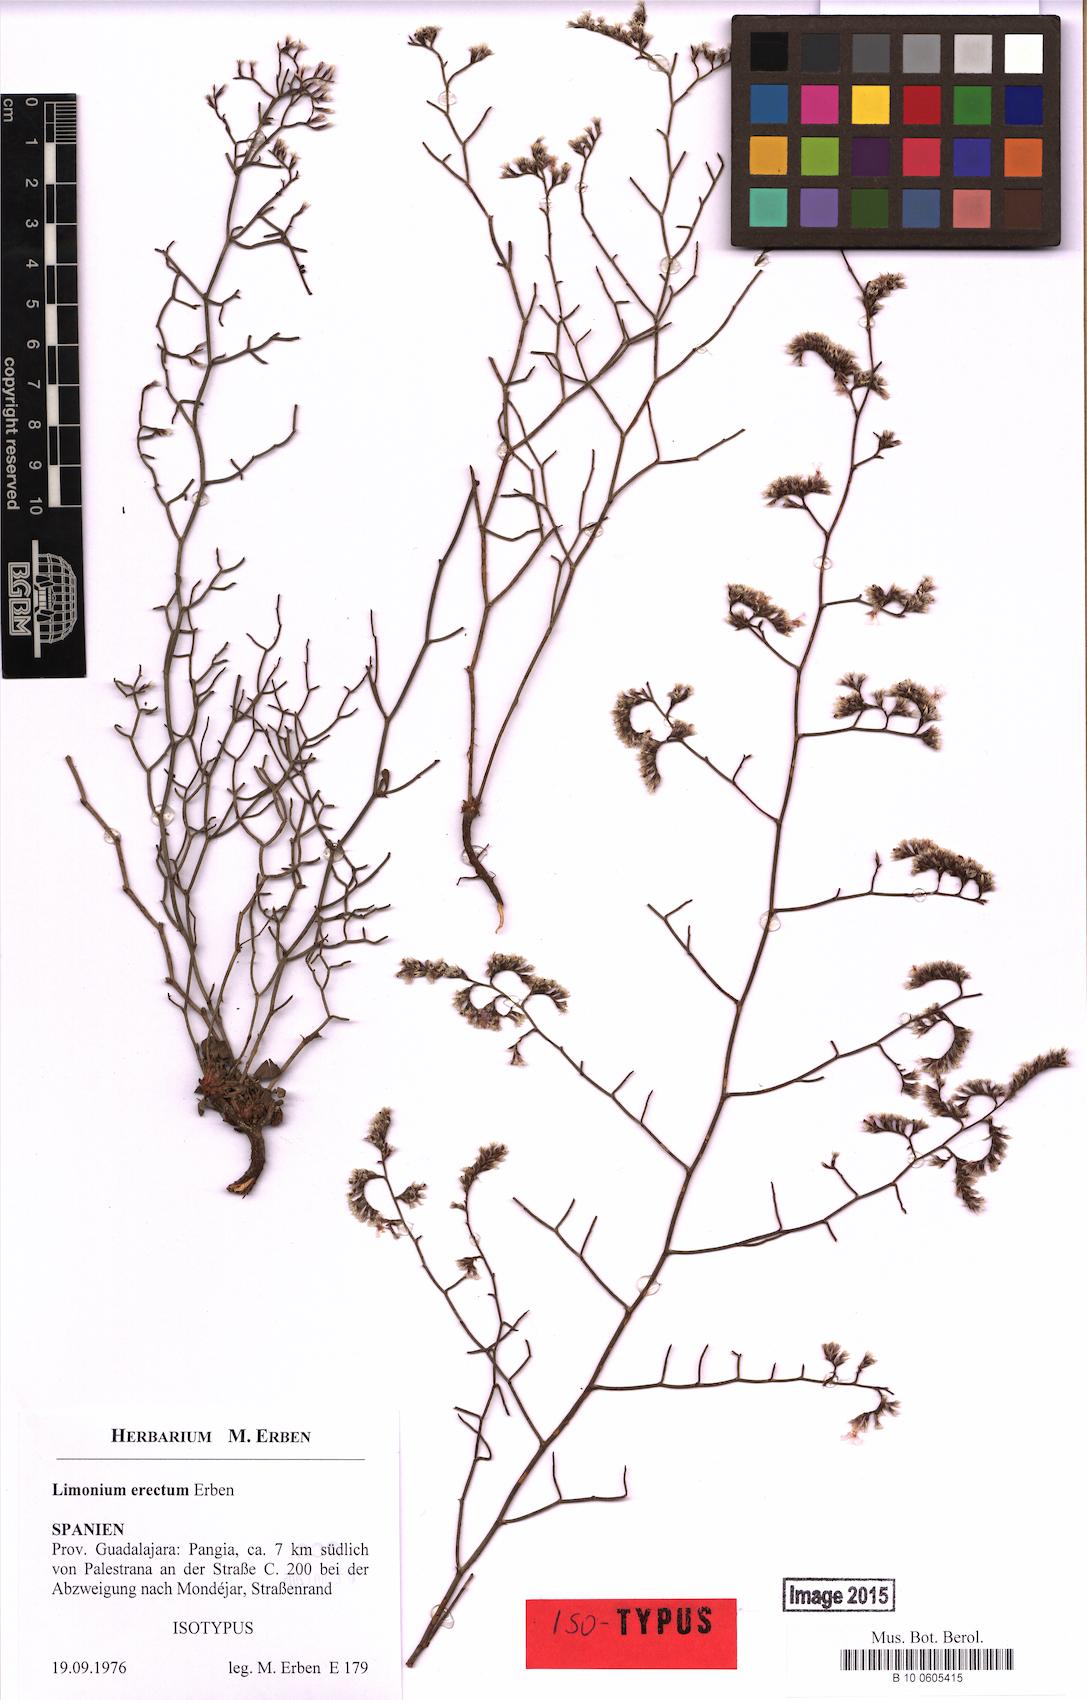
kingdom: Plantae
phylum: Tracheophyta
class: Magnoliopsida
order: Caryophyllales
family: Plumbaginaceae
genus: Limonium
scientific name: Limonium erectum
